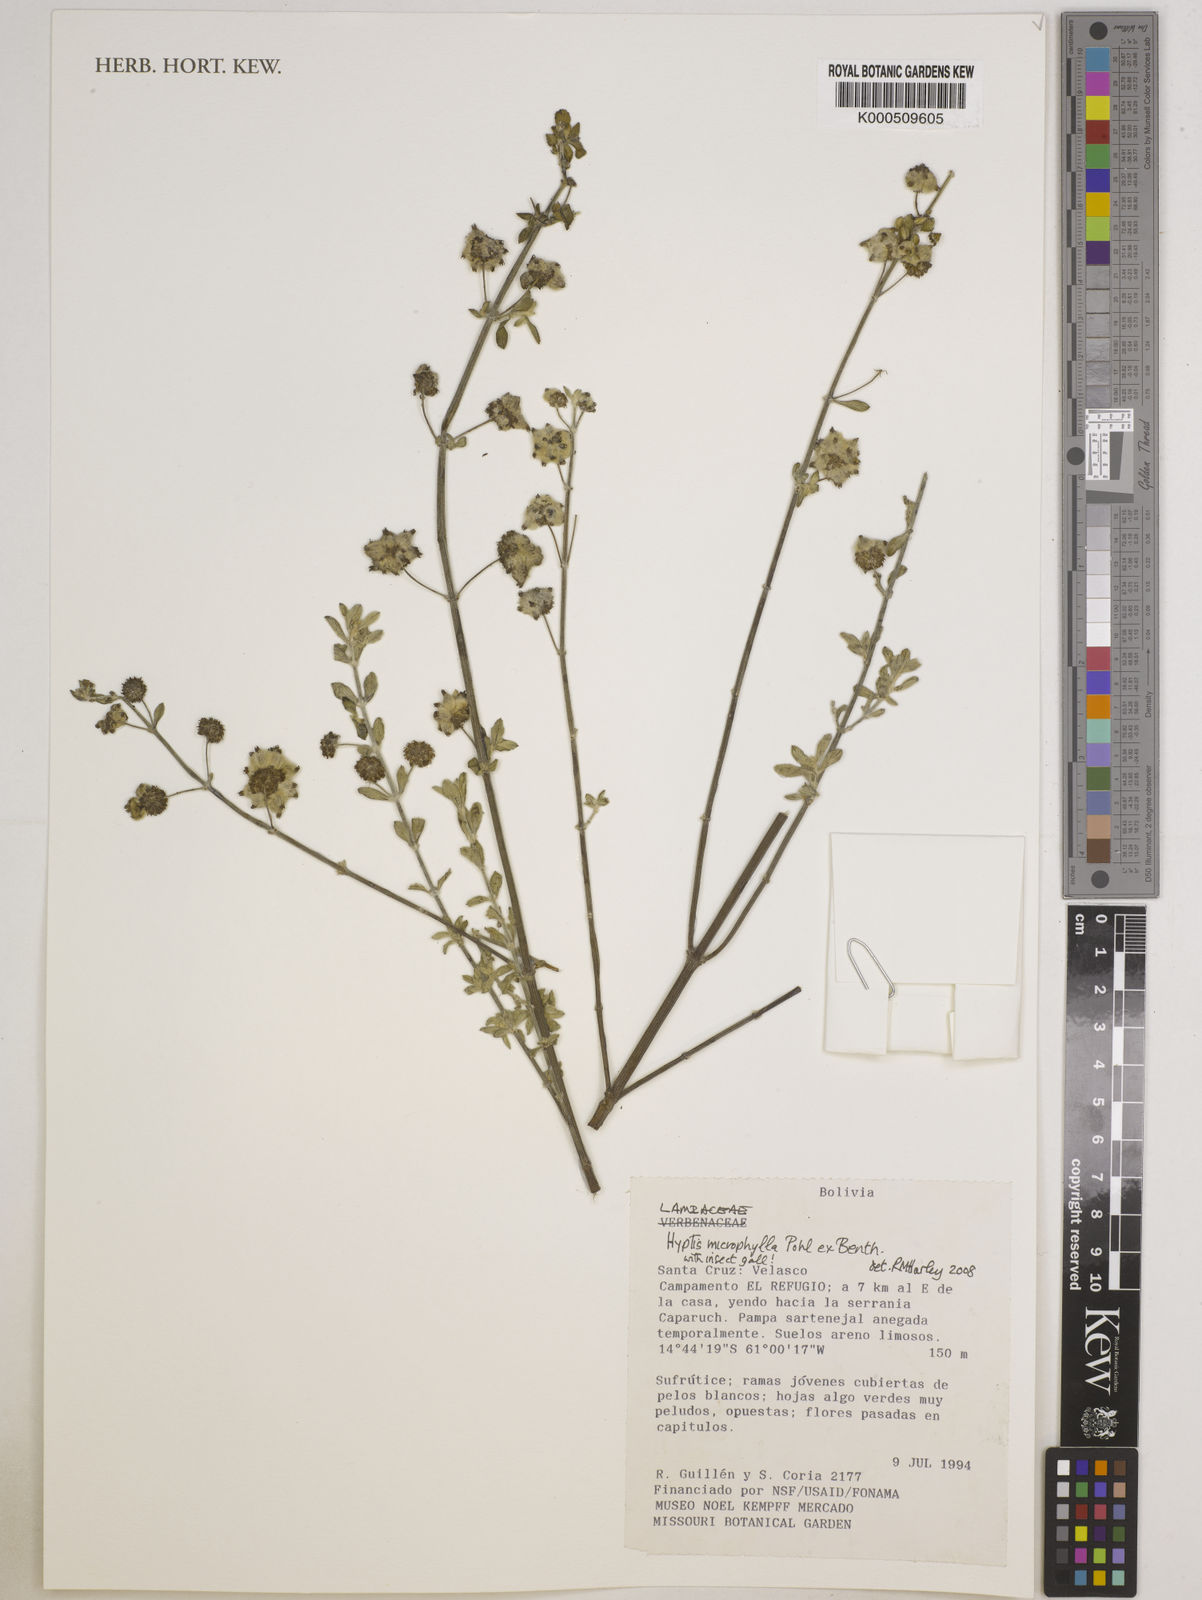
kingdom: Plantae
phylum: Tracheophyta
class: Magnoliopsida
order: Lamiales
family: Lamiaceae
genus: Hyptis
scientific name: Hyptis microphylla
